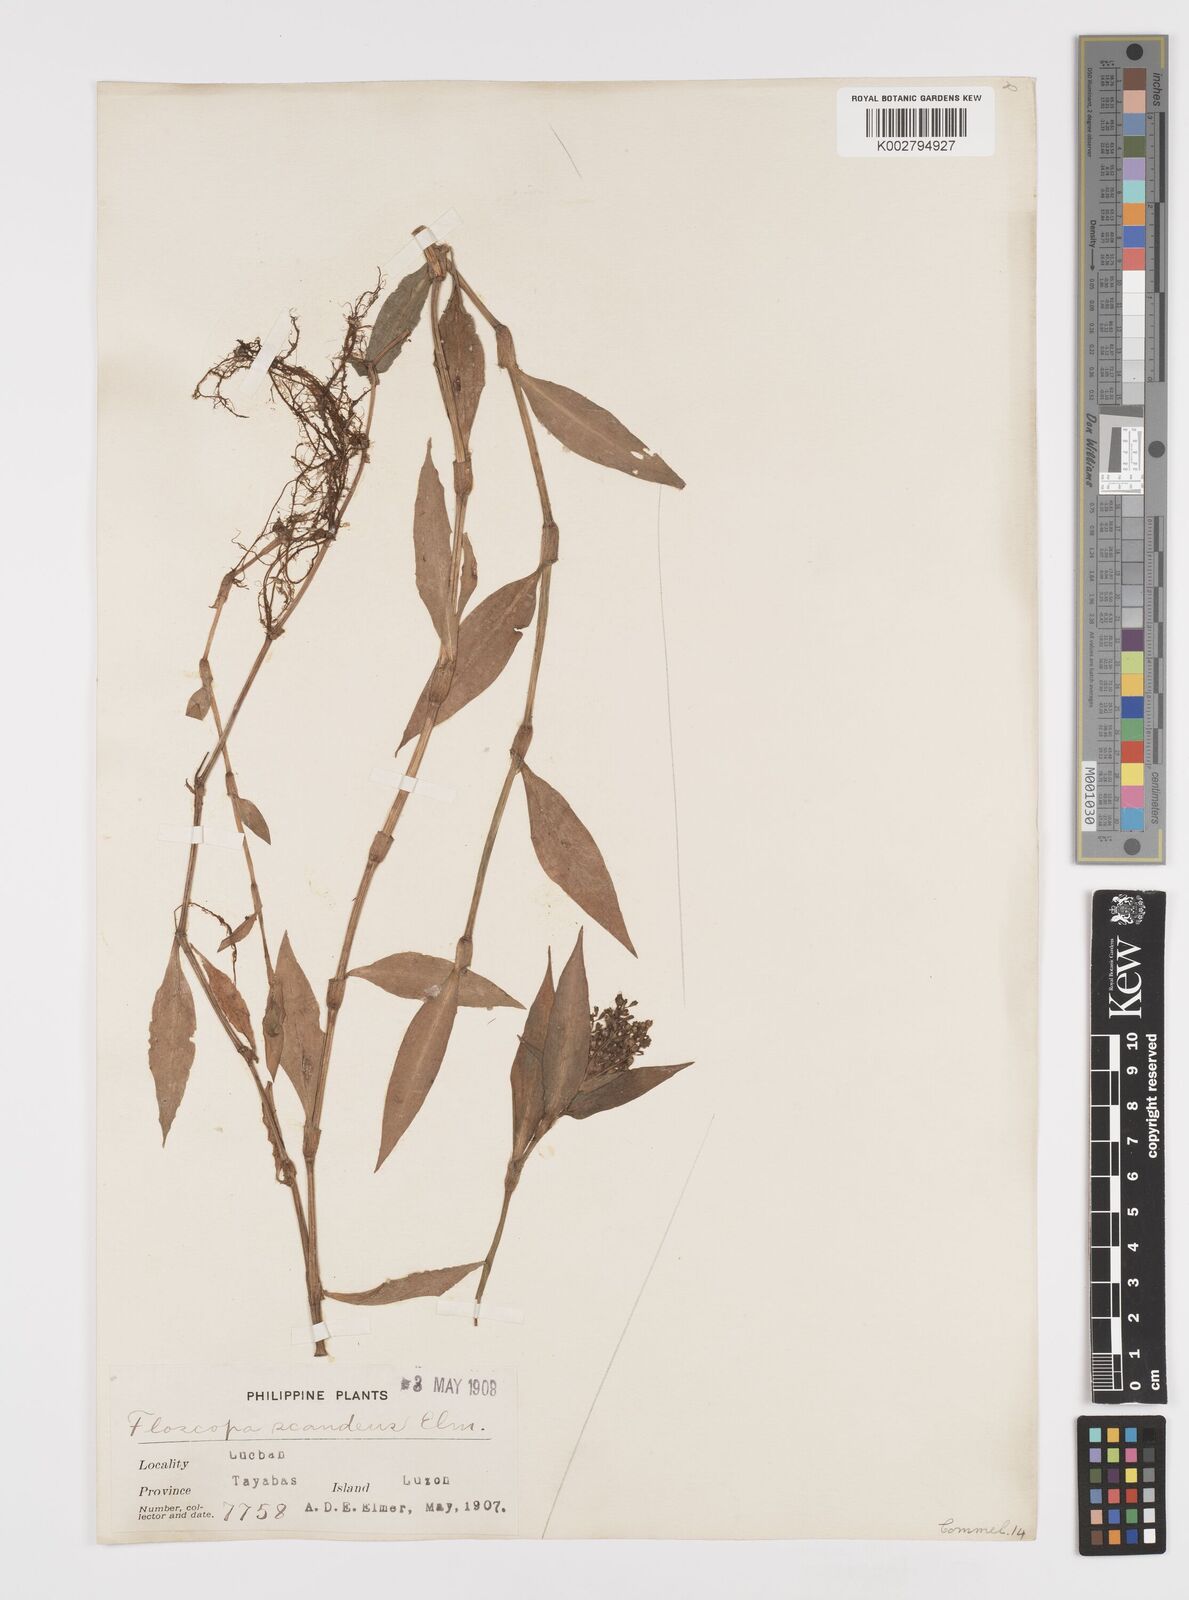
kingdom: Plantae
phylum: Tracheophyta
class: Liliopsida
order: Commelinales
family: Commelinaceae
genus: Floscopa
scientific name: Floscopa scandens
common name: Climbing flower cup
